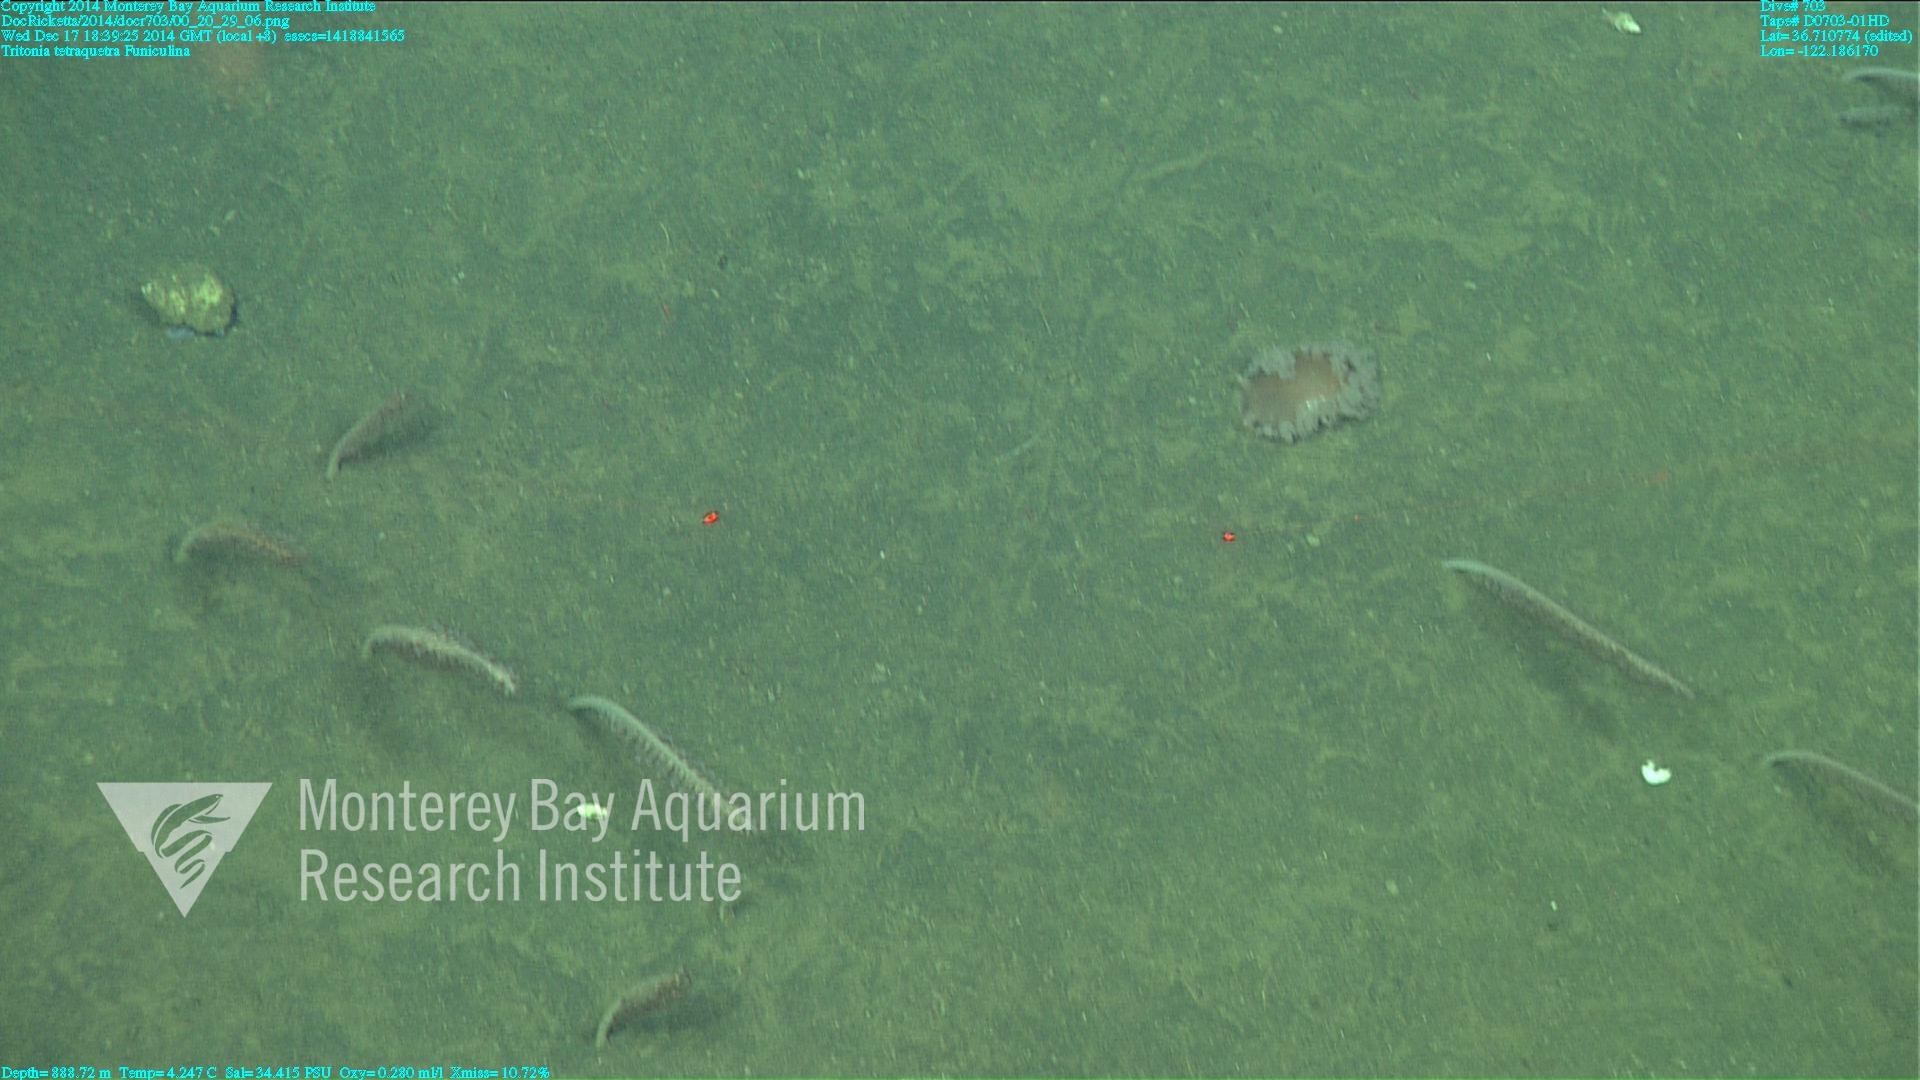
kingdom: Animalia
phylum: Cnidaria
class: Anthozoa
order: Scleralcyonacea
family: Funiculinidae
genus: Funiculina
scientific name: Funiculina
